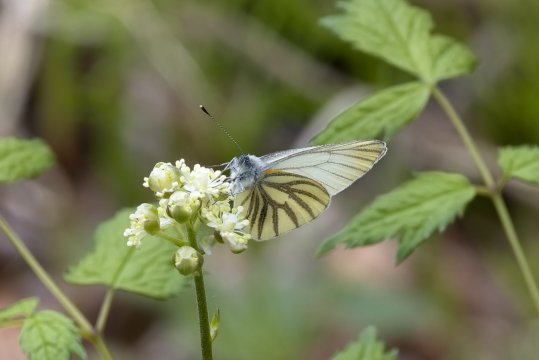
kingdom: Animalia
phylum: Arthropoda
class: Insecta
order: Lepidoptera
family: Pieridae
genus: Pieris
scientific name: Pieris oleracea
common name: Mustard White
